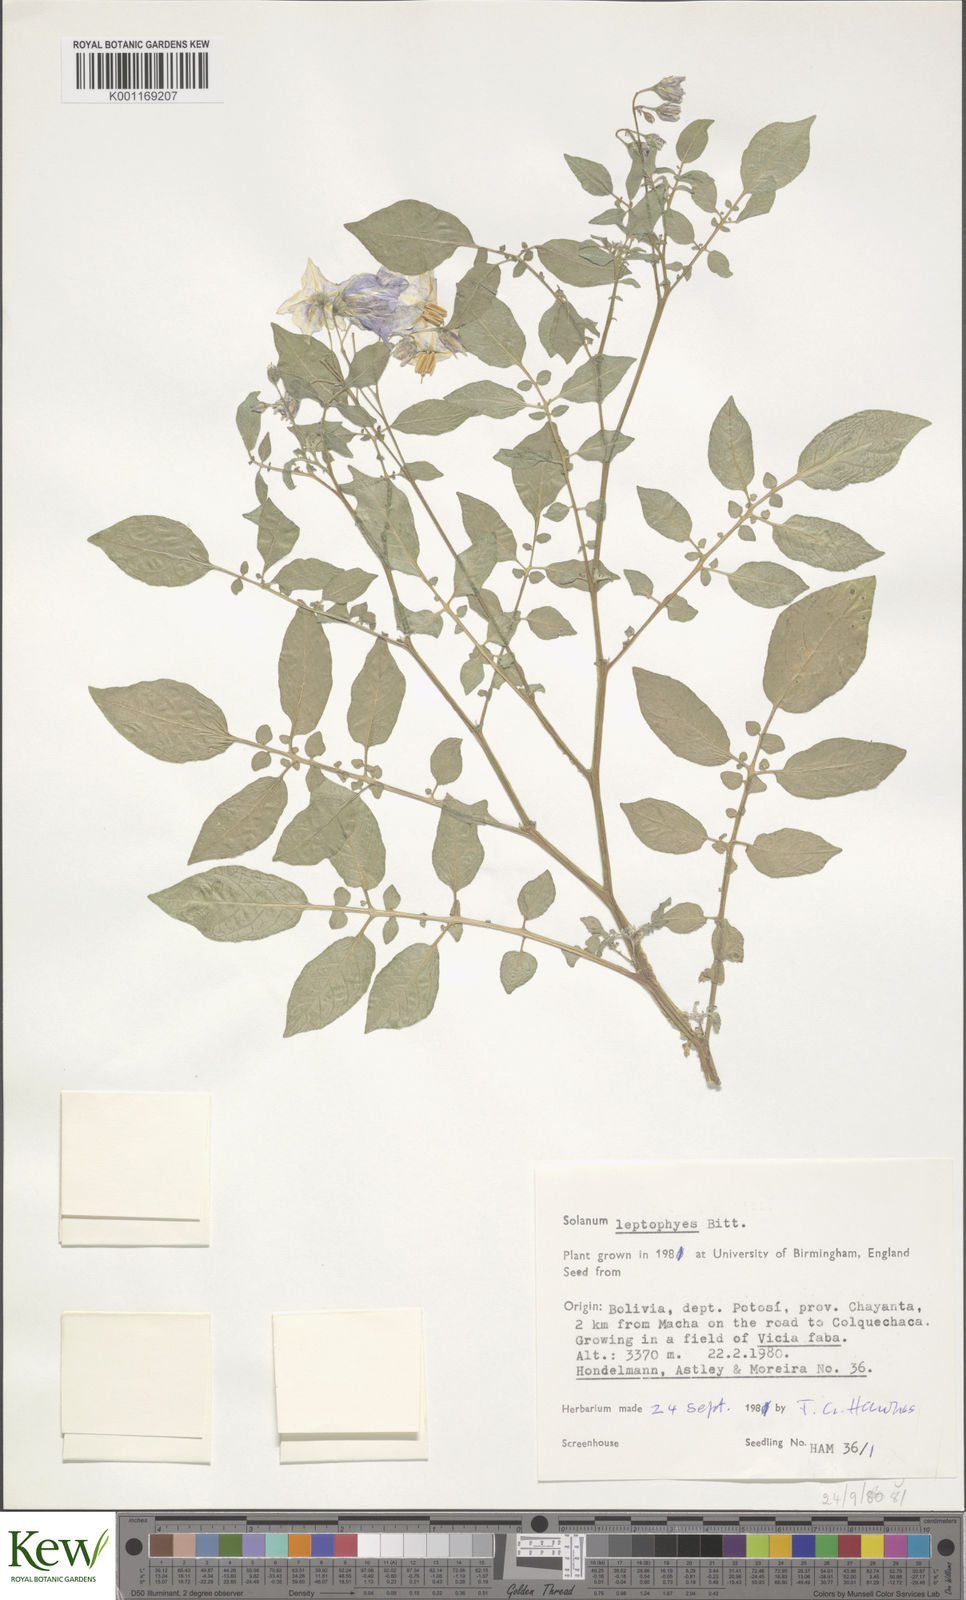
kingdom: Plantae
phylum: Tracheophyta
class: Magnoliopsida
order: Solanales
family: Solanaceae
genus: Solanum
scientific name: Solanum brevicaule
